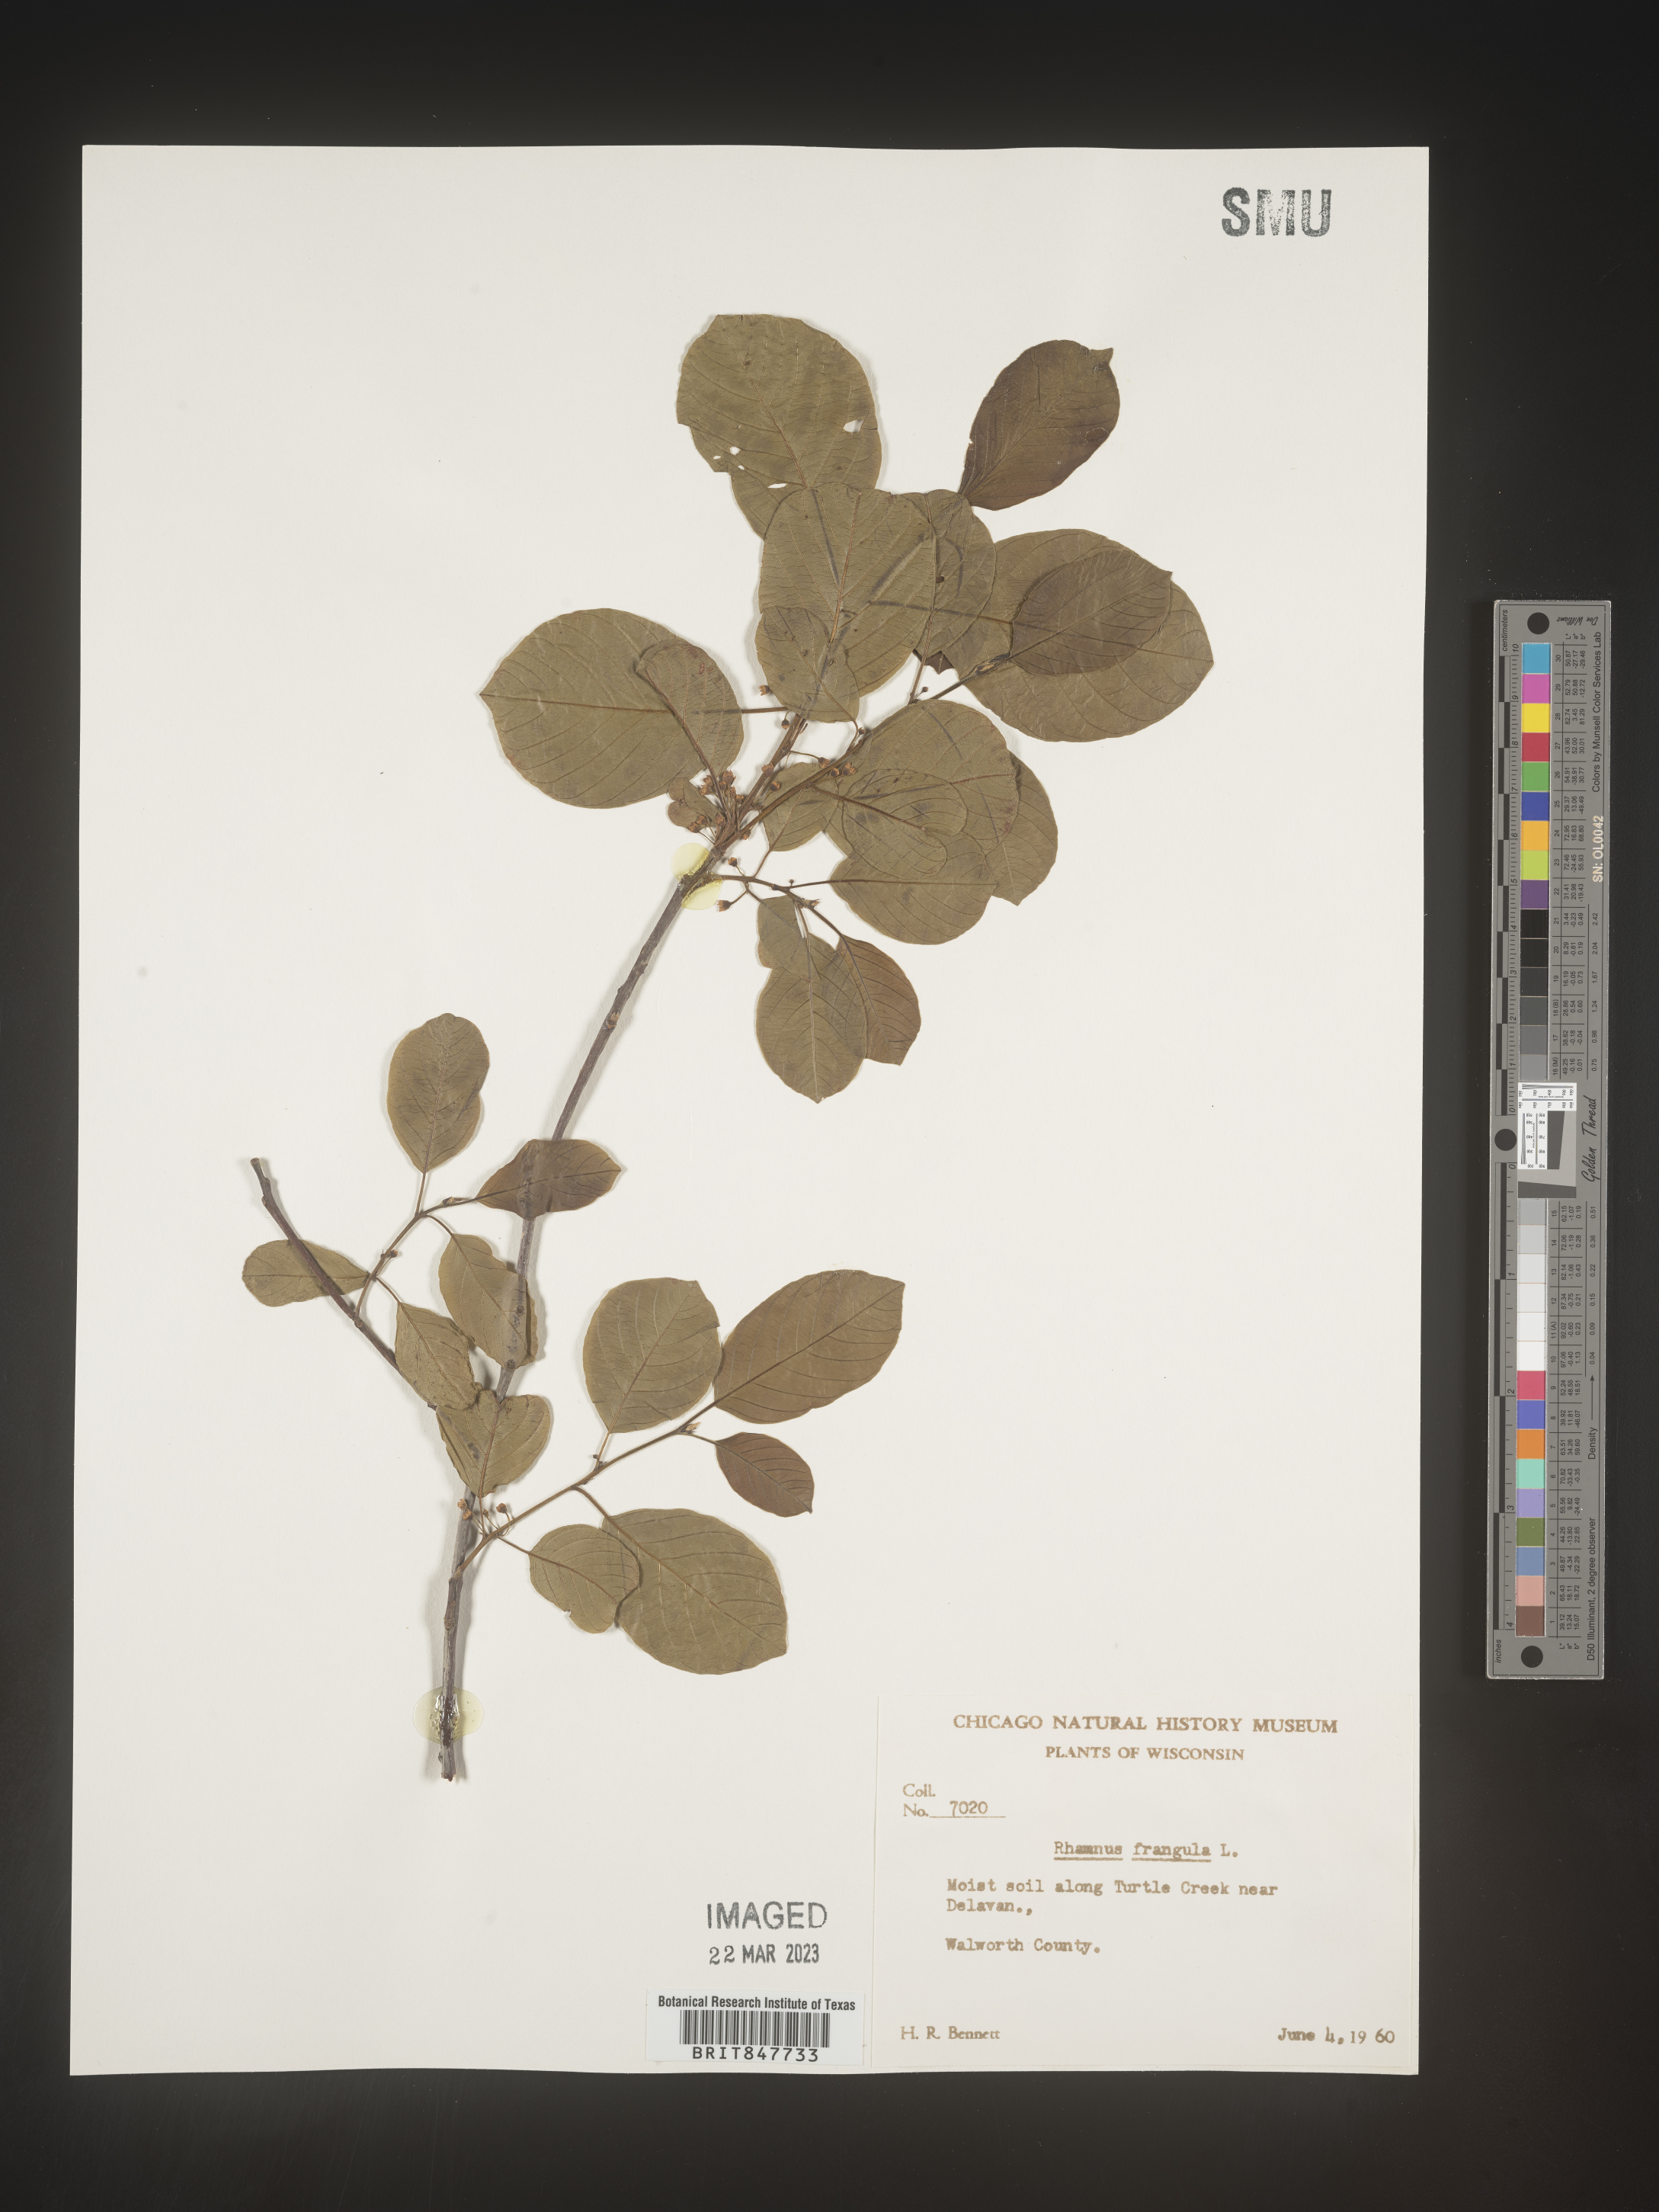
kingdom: Plantae
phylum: Tracheophyta
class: Magnoliopsida
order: Rosales
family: Rhamnaceae
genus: Frangula
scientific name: Frangula alnus
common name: Alder buckthorn
